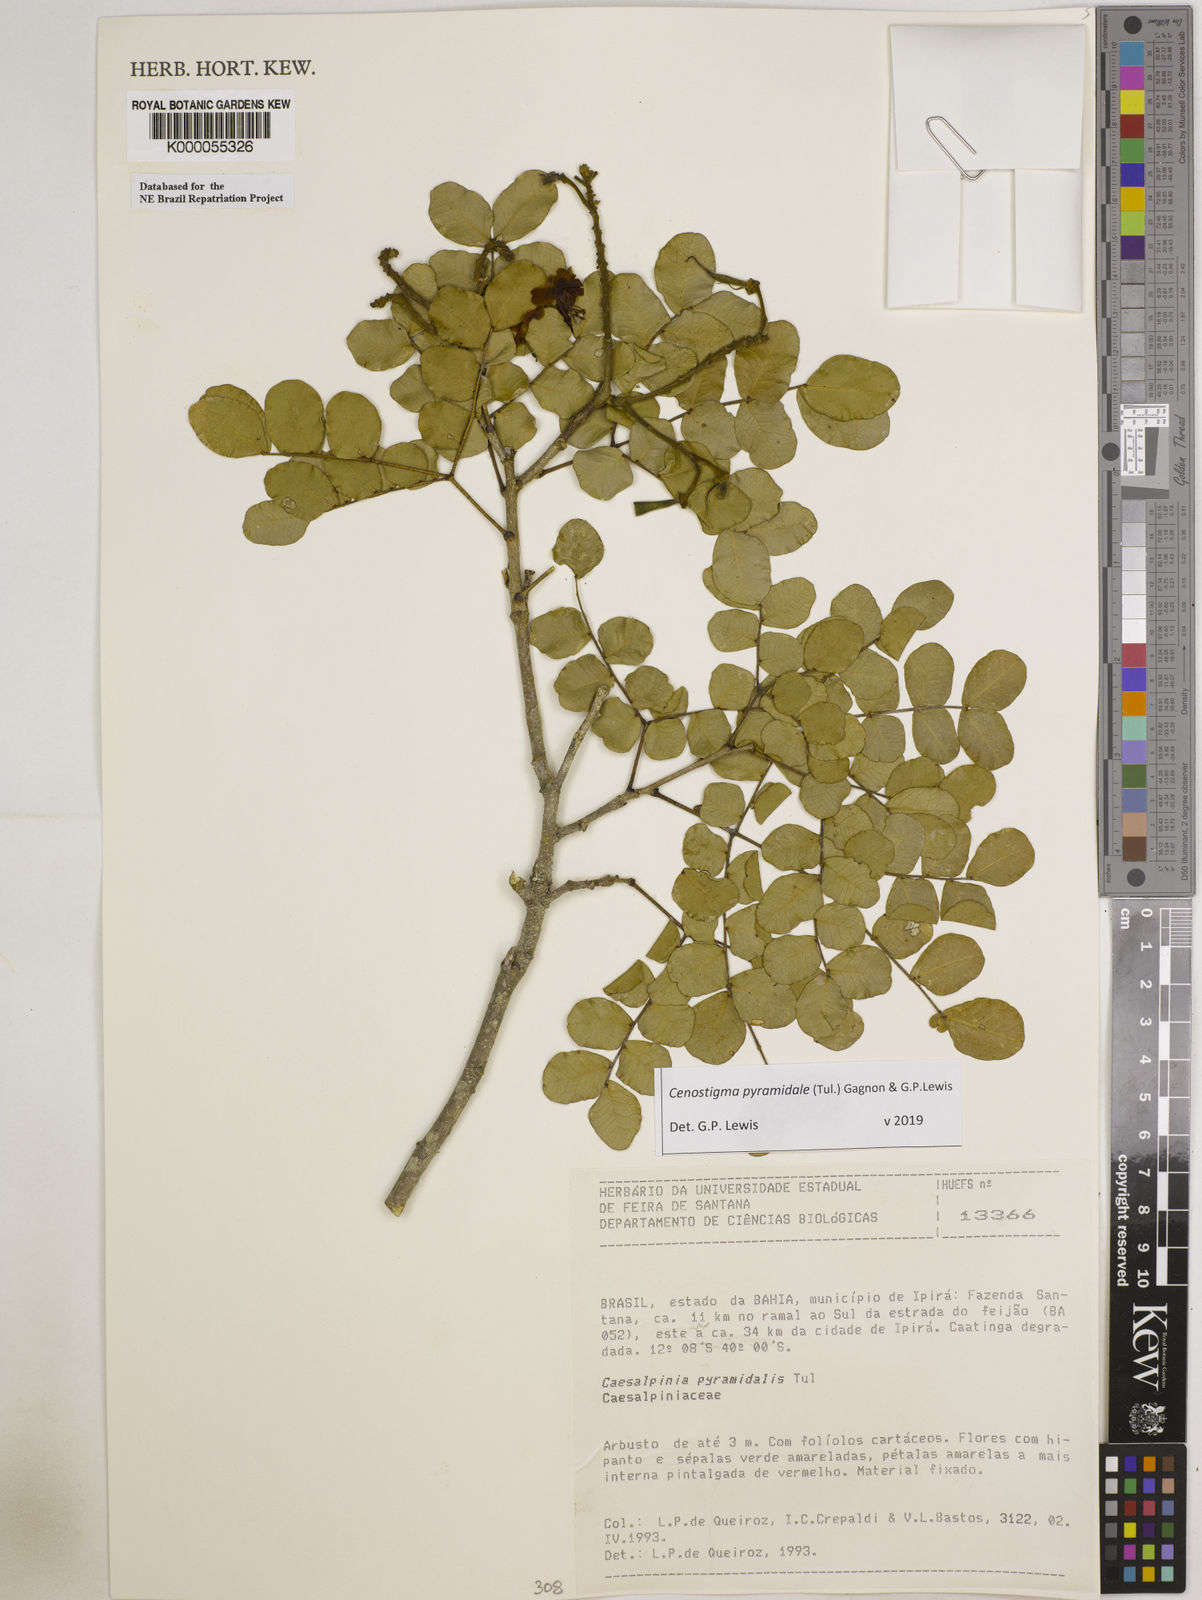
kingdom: Plantae
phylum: Tracheophyta
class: Magnoliopsida
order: Fabales
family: Fabaceae
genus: Cenostigma
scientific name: Cenostigma pyramidale
